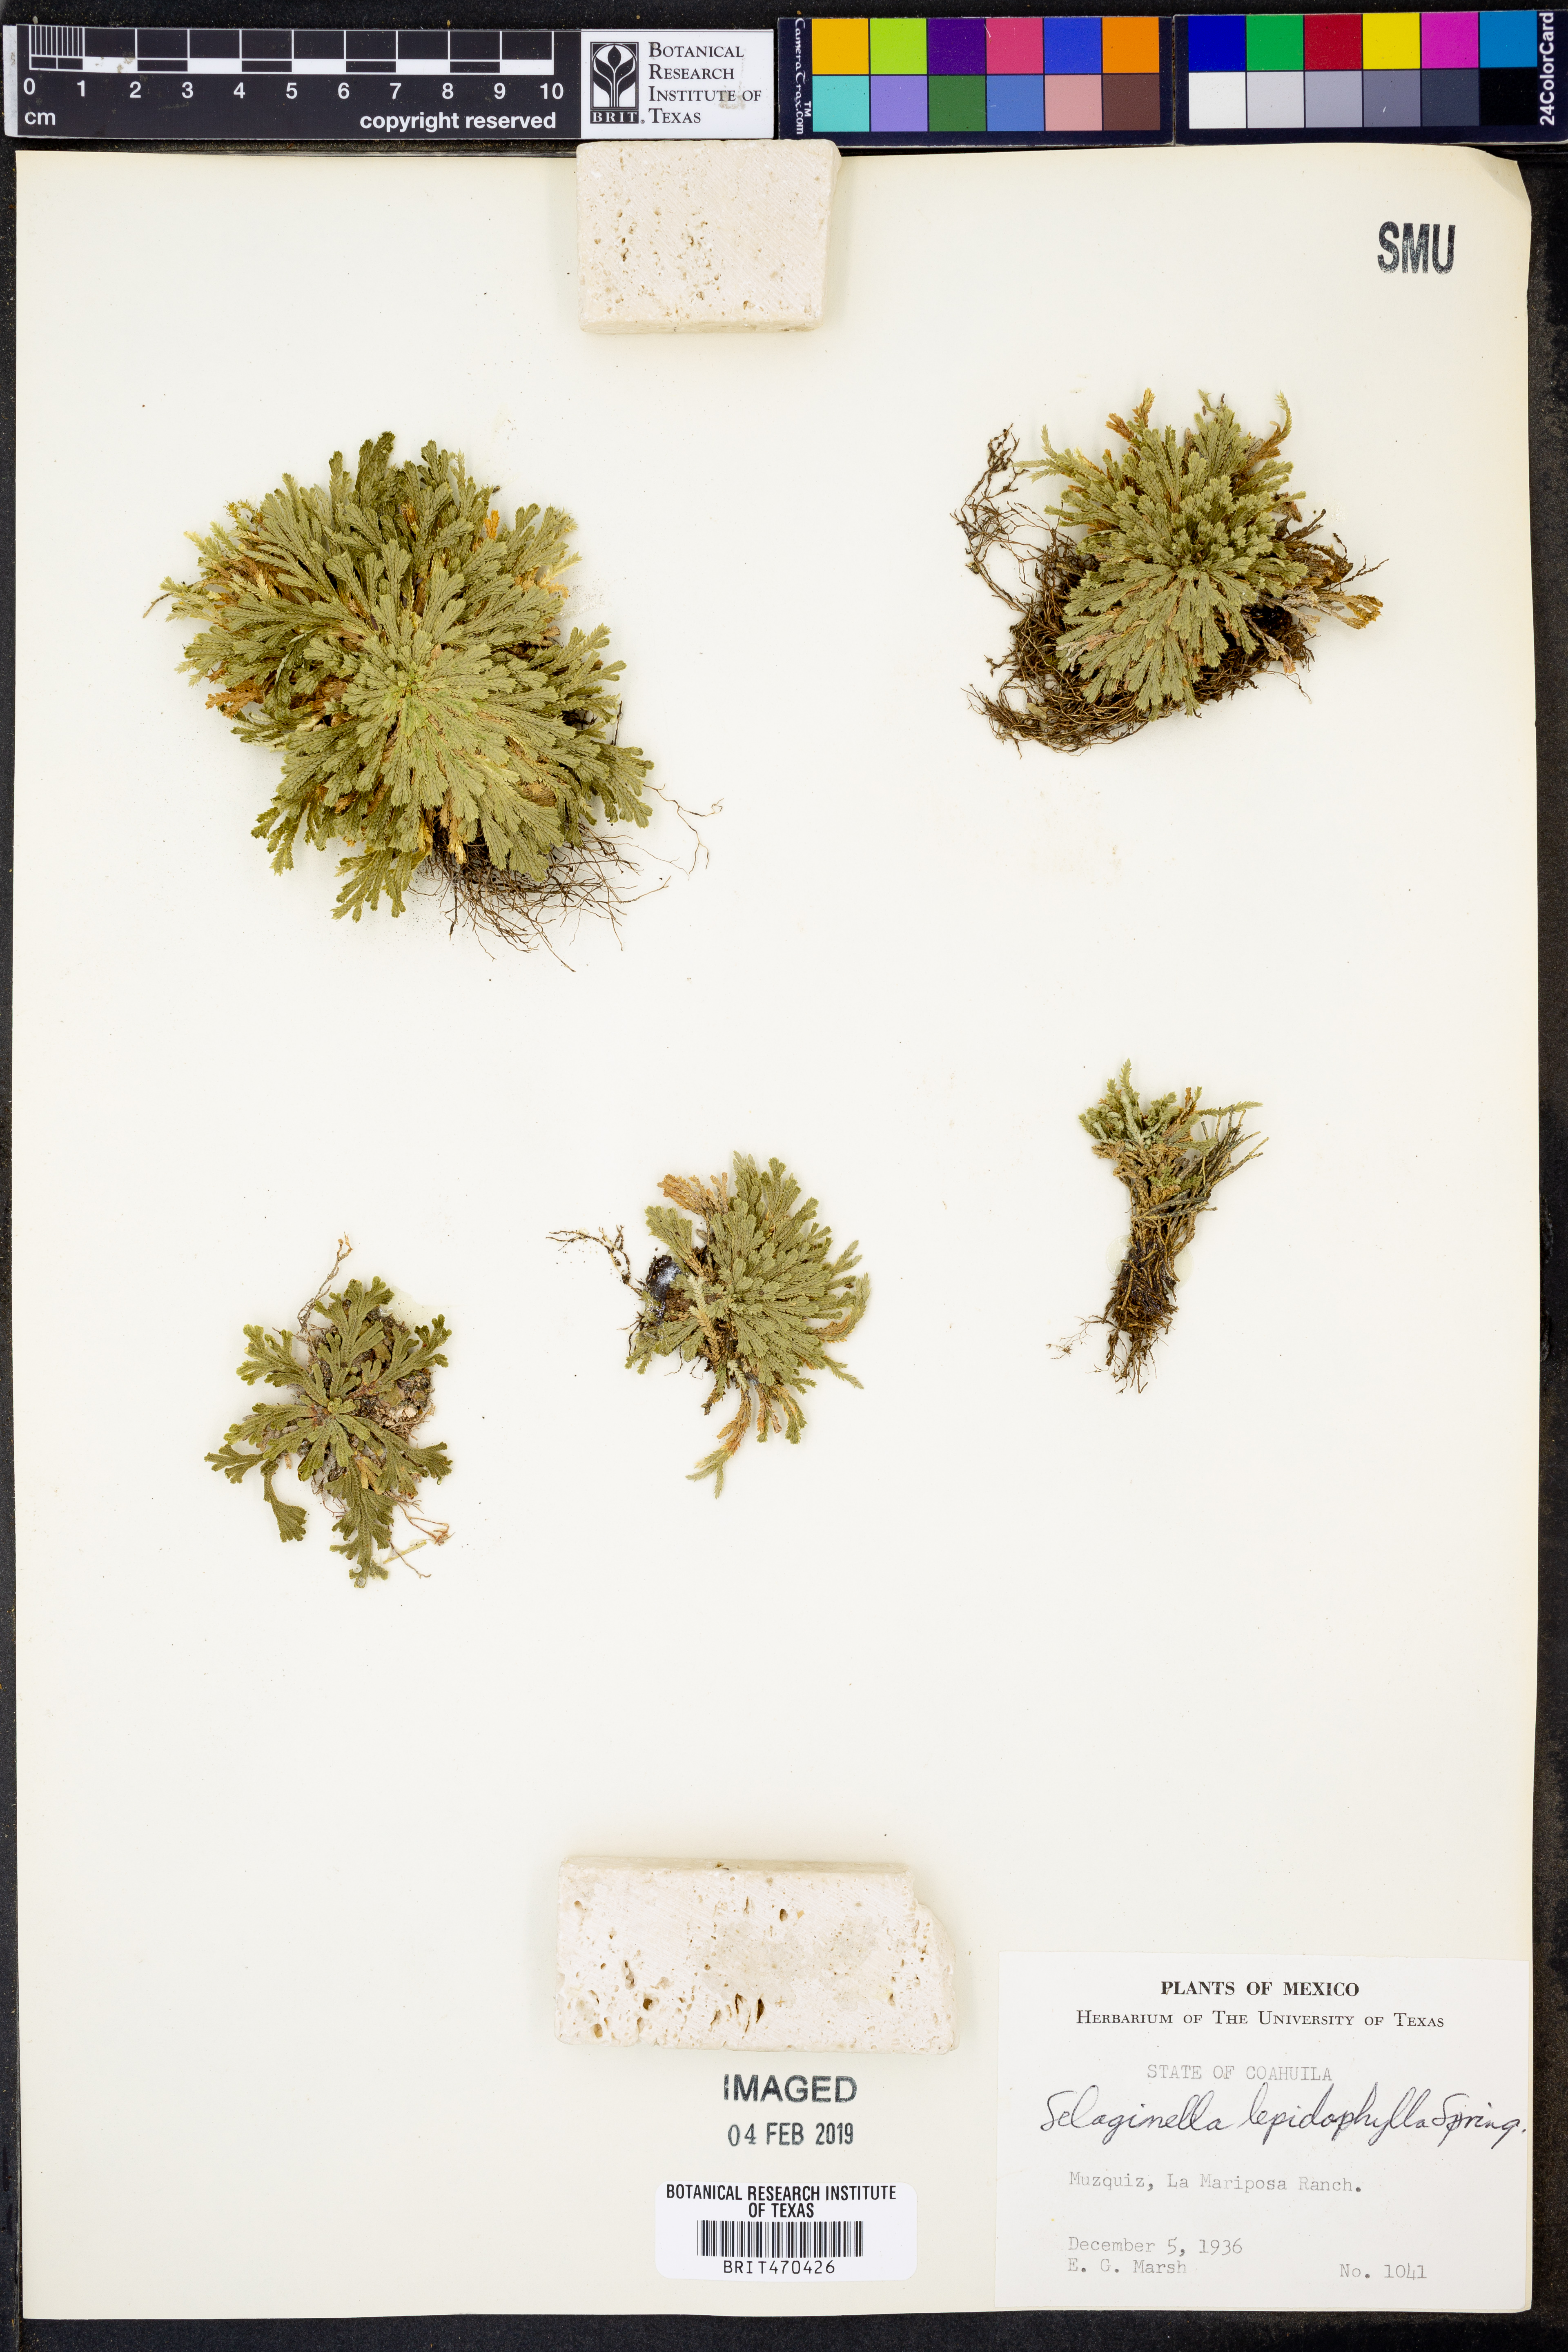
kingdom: Plantae
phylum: Tracheophyta
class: Lycopodiopsida
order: Selaginellales
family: Selaginellaceae
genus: Selaginella
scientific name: Selaginella lepidophylla
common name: Rose-of-jericho
